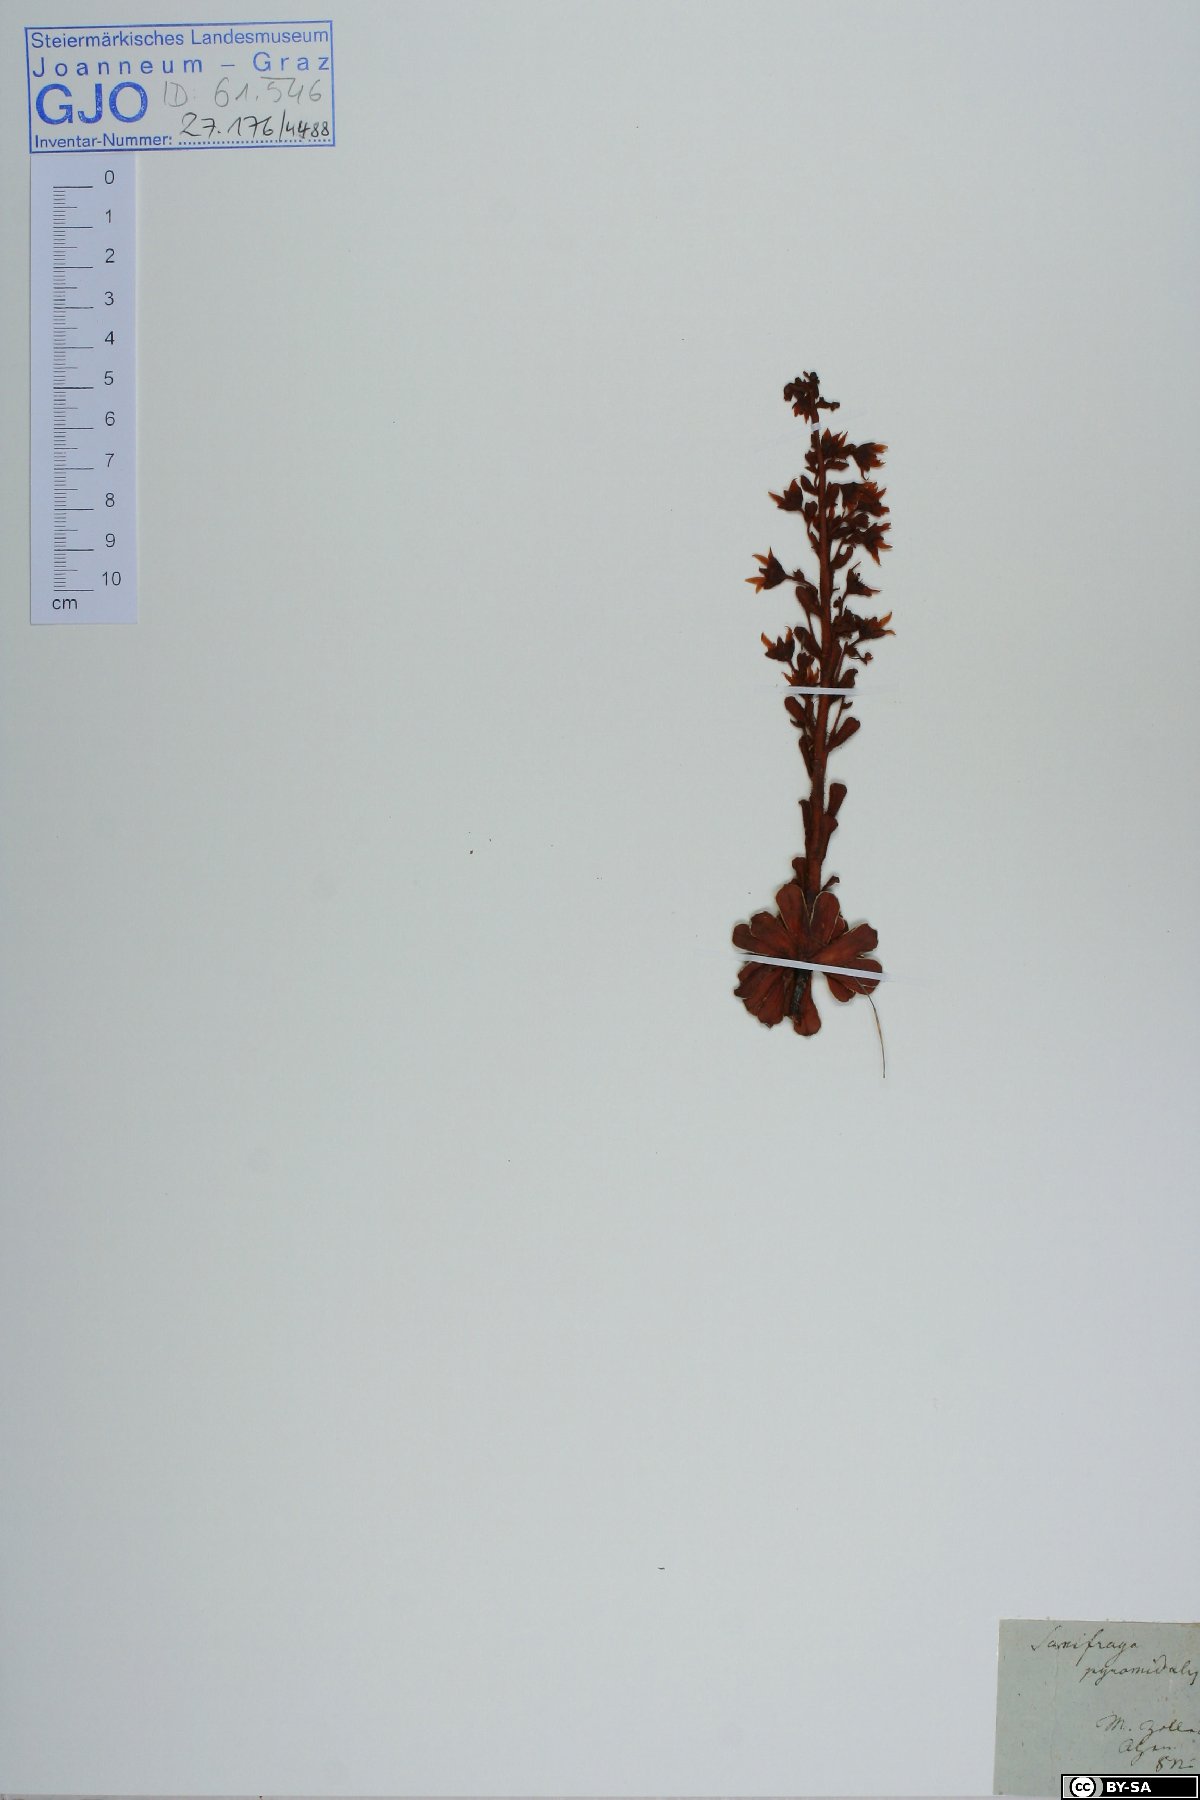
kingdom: Plantae
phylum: Tracheophyta
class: Magnoliopsida
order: Saxifragales
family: Saxifragaceae
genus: Saxifraga
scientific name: Saxifraga mutata
